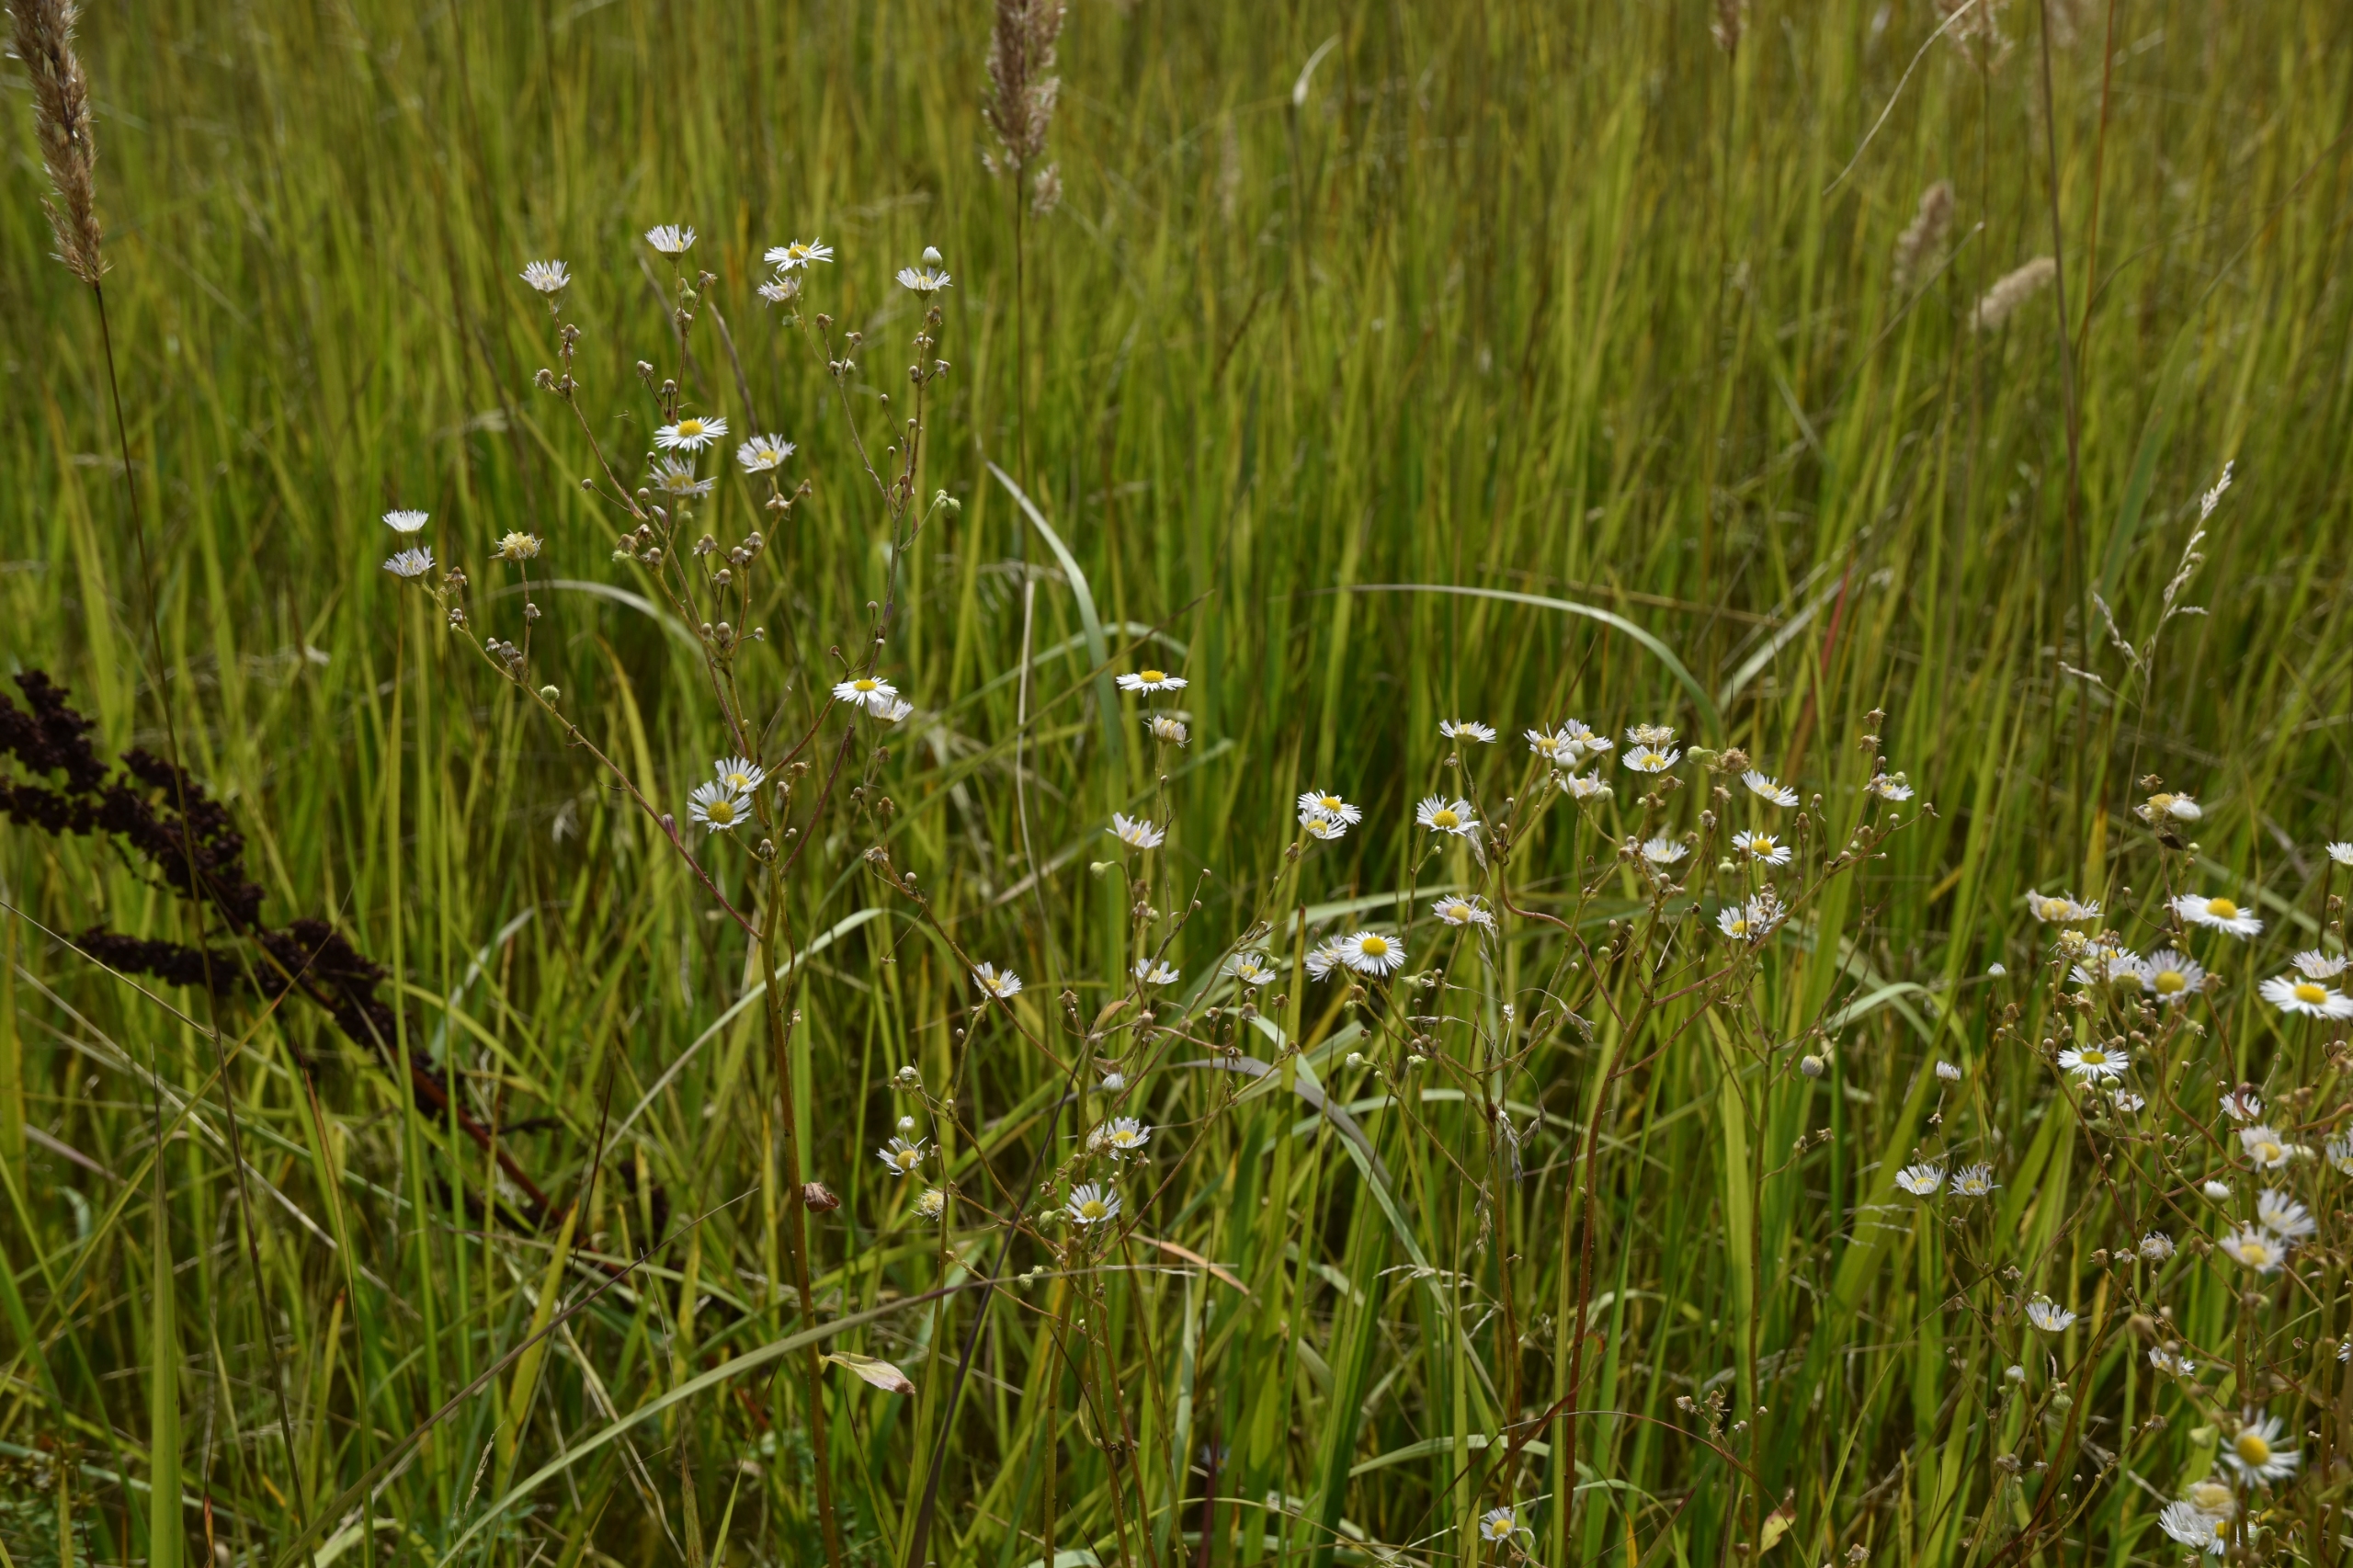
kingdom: Plantae
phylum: Tracheophyta
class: Magnoliopsida
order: Asterales
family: Asteraceae
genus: Erigeron
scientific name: Erigeron strigosus
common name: Hvid smalstråle
